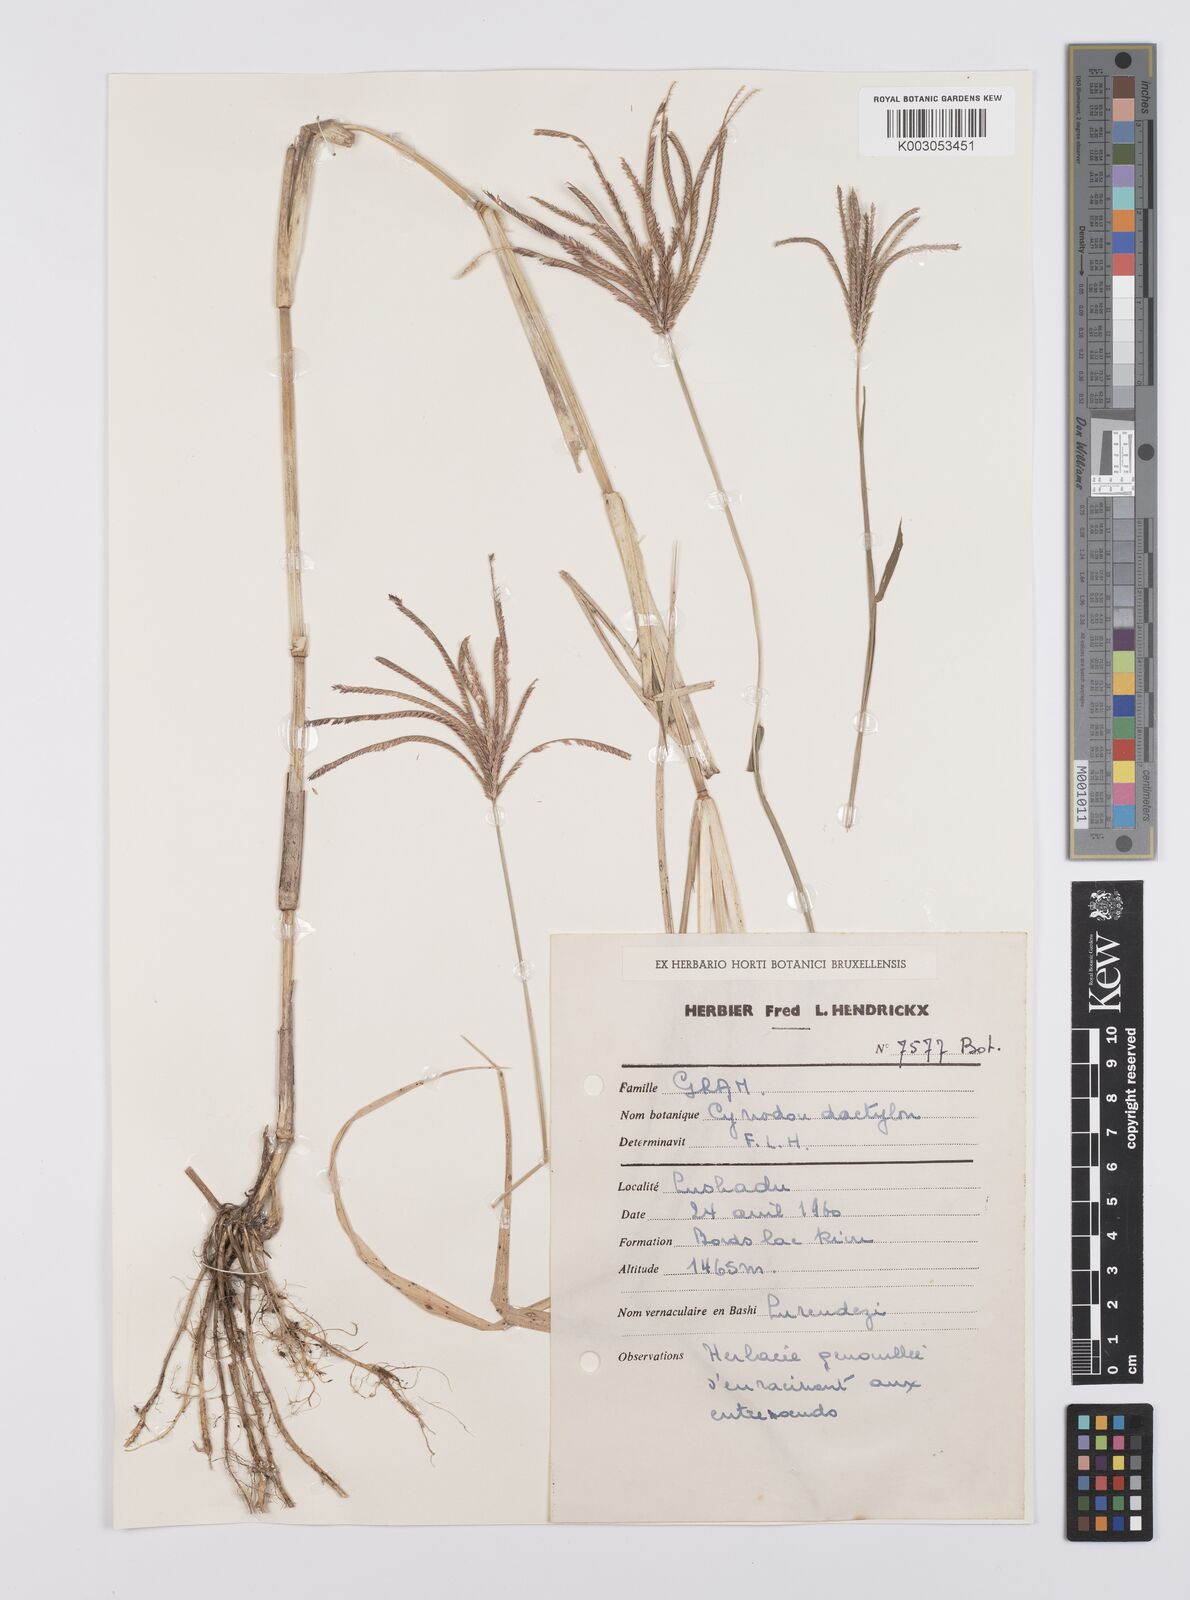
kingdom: Plantae
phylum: Tracheophyta
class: Liliopsida
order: Poales
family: Poaceae
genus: Cynodon
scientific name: Cynodon aethiopicus
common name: Ethiopian dogstooth grass
